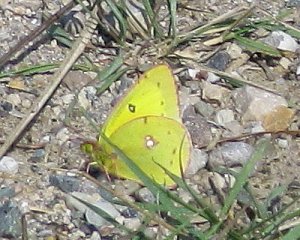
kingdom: Animalia
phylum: Arthropoda
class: Insecta
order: Lepidoptera
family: Pieridae
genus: Colias
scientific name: Colias philodice
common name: Clouded Sulphur
